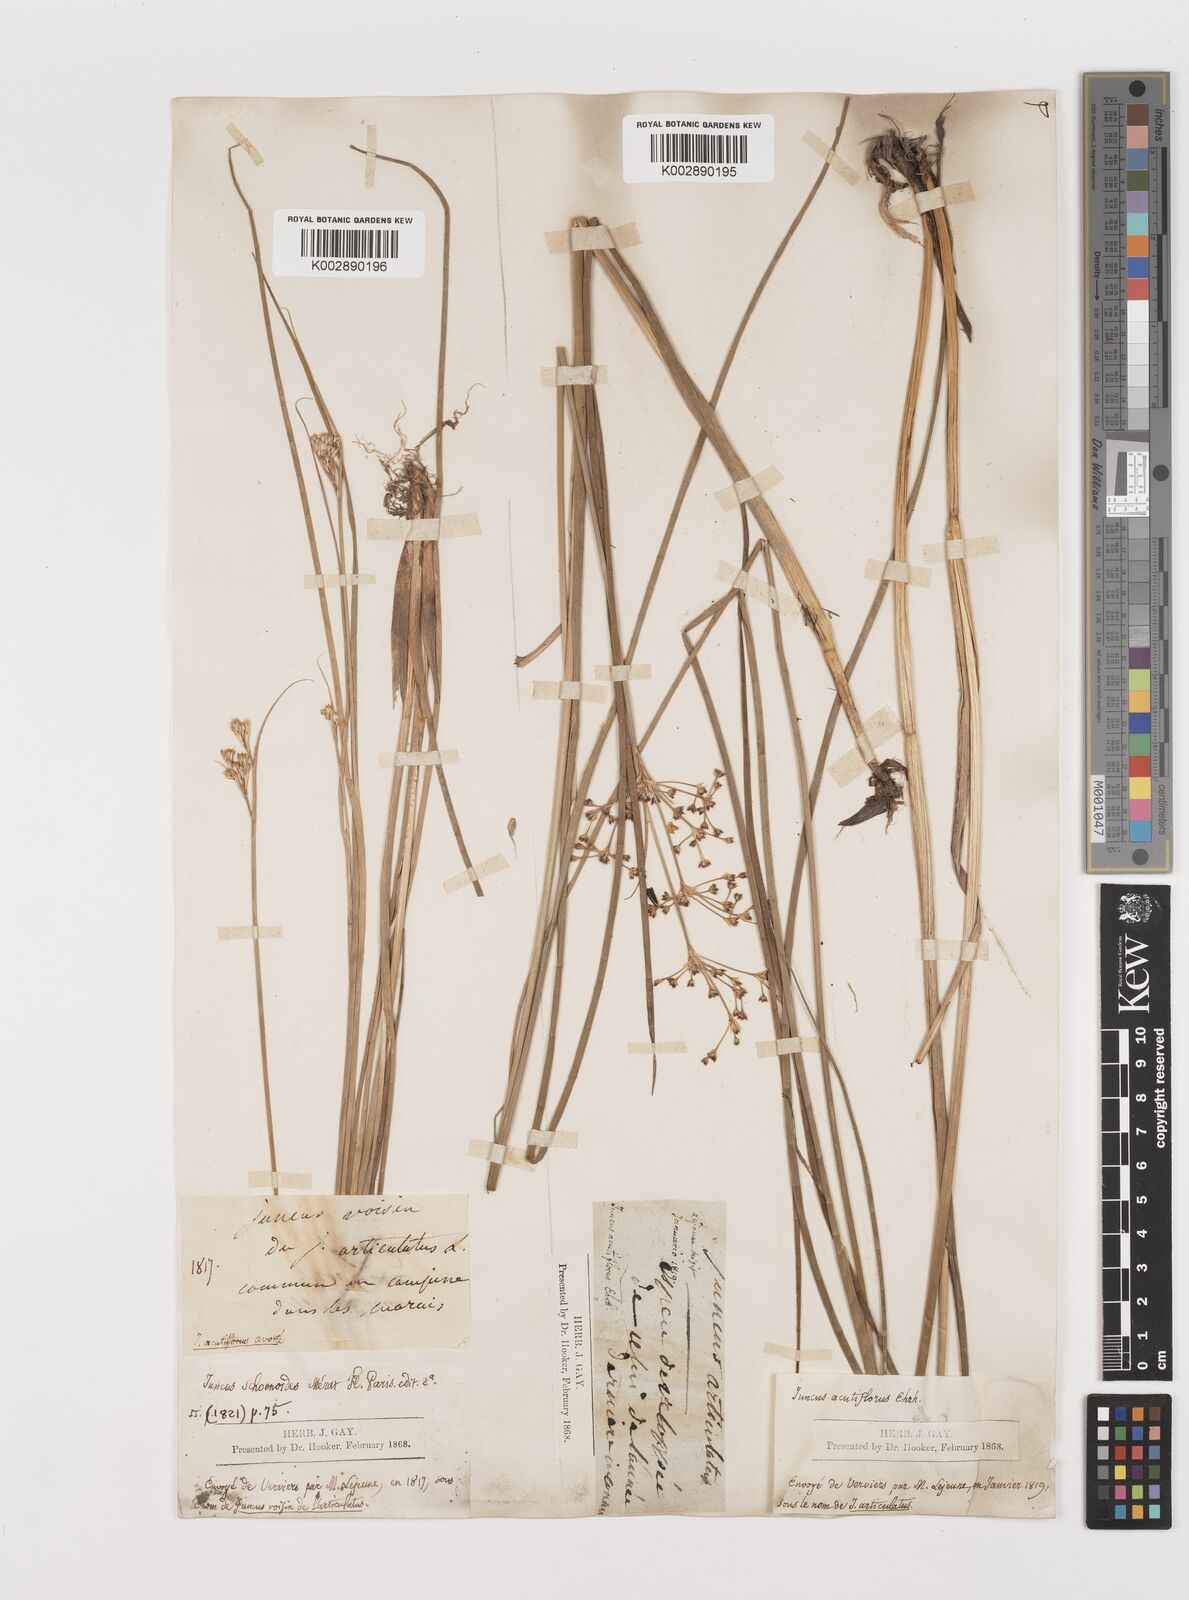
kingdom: Plantae
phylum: Tracheophyta
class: Liliopsida
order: Poales
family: Juncaceae
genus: Juncus
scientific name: Juncus articulatus
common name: Jointed rush
